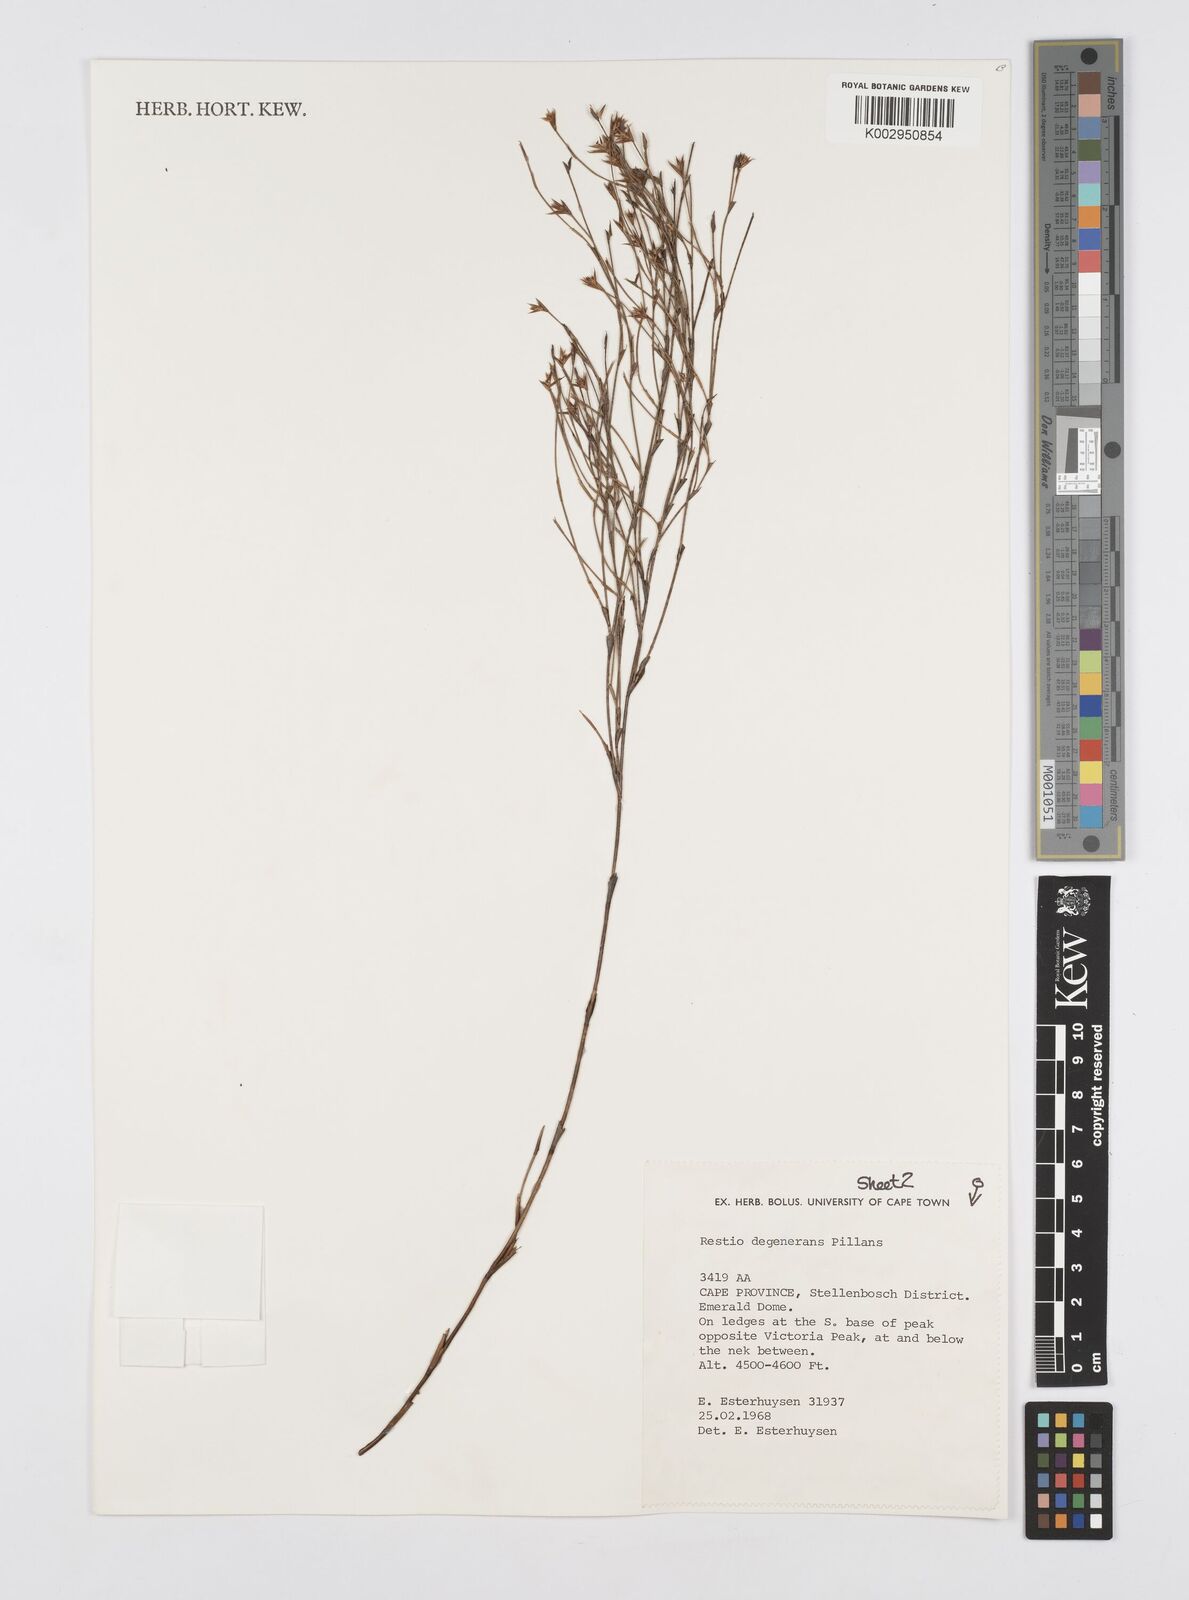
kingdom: Plantae
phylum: Tracheophyta
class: Liliopsida
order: Poales
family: Restionaceae
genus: Restio
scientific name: Restio degenerans
